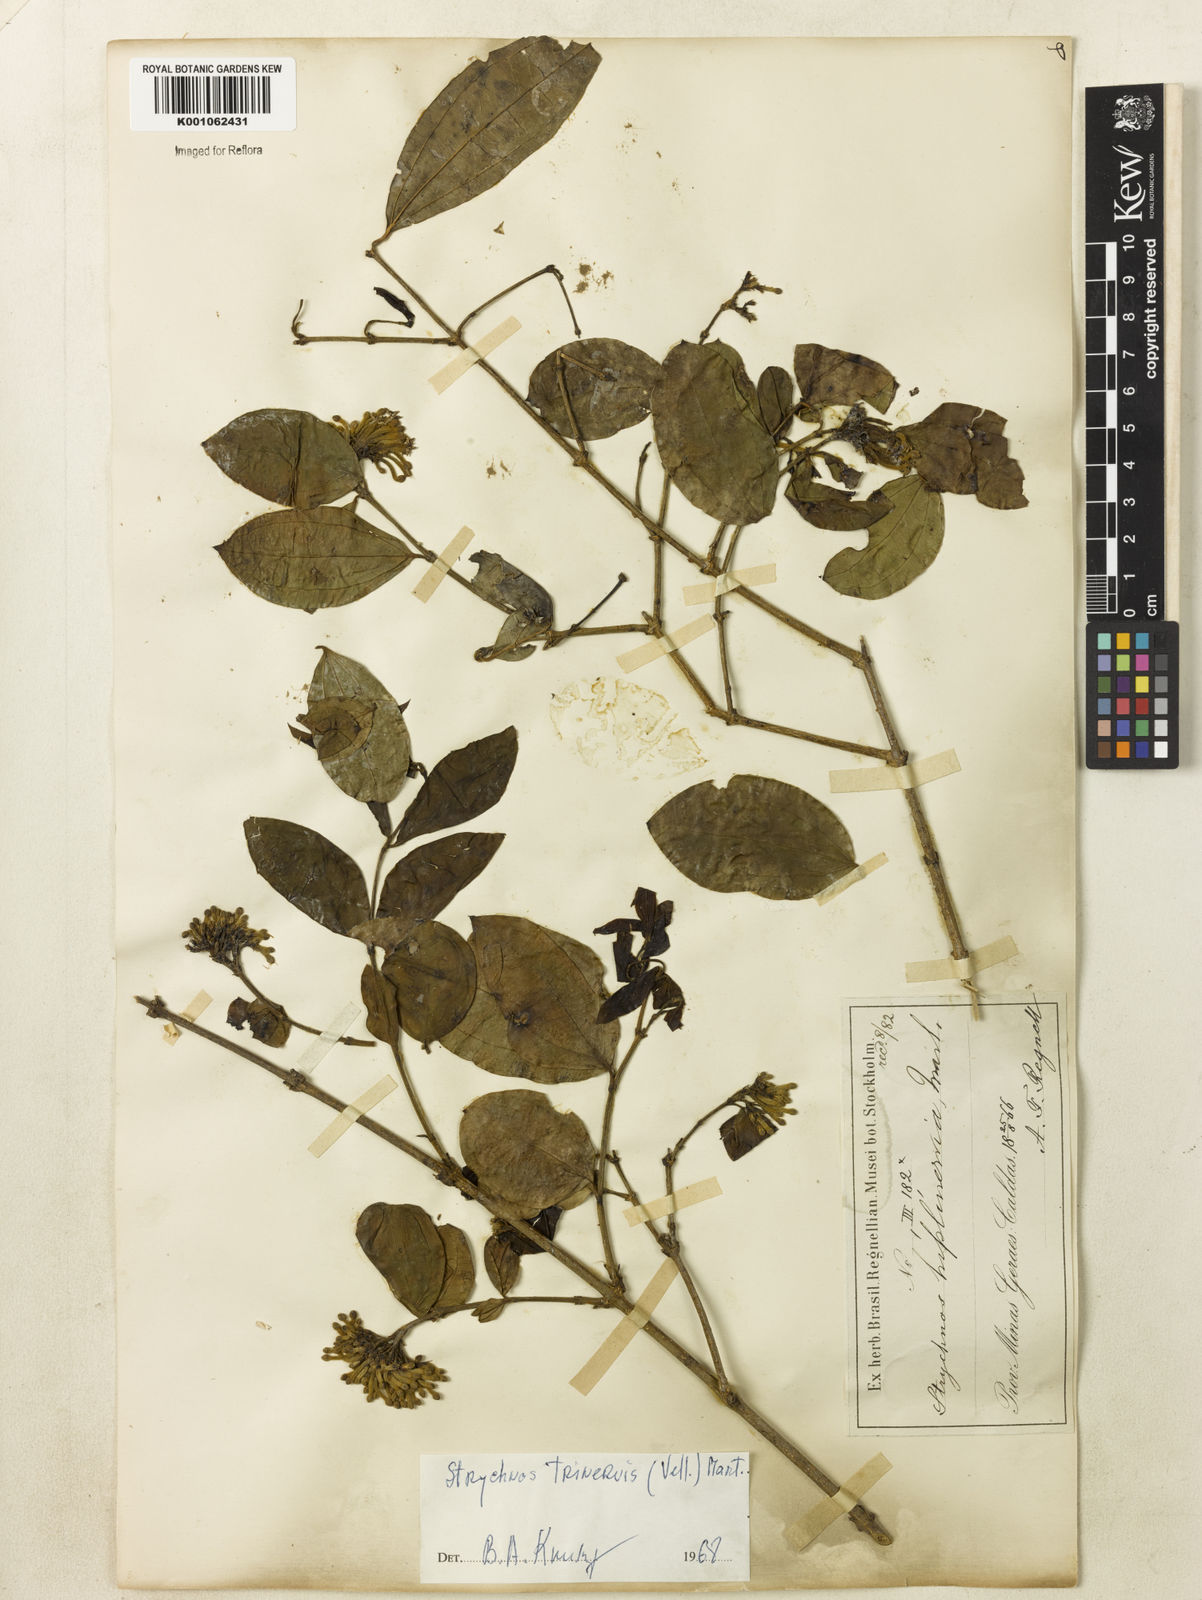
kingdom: Plantae
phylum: Tracheophyta
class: Magnoliopsida
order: Gentianales
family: Loganiaceae
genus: Strychnos
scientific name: Strychnos
